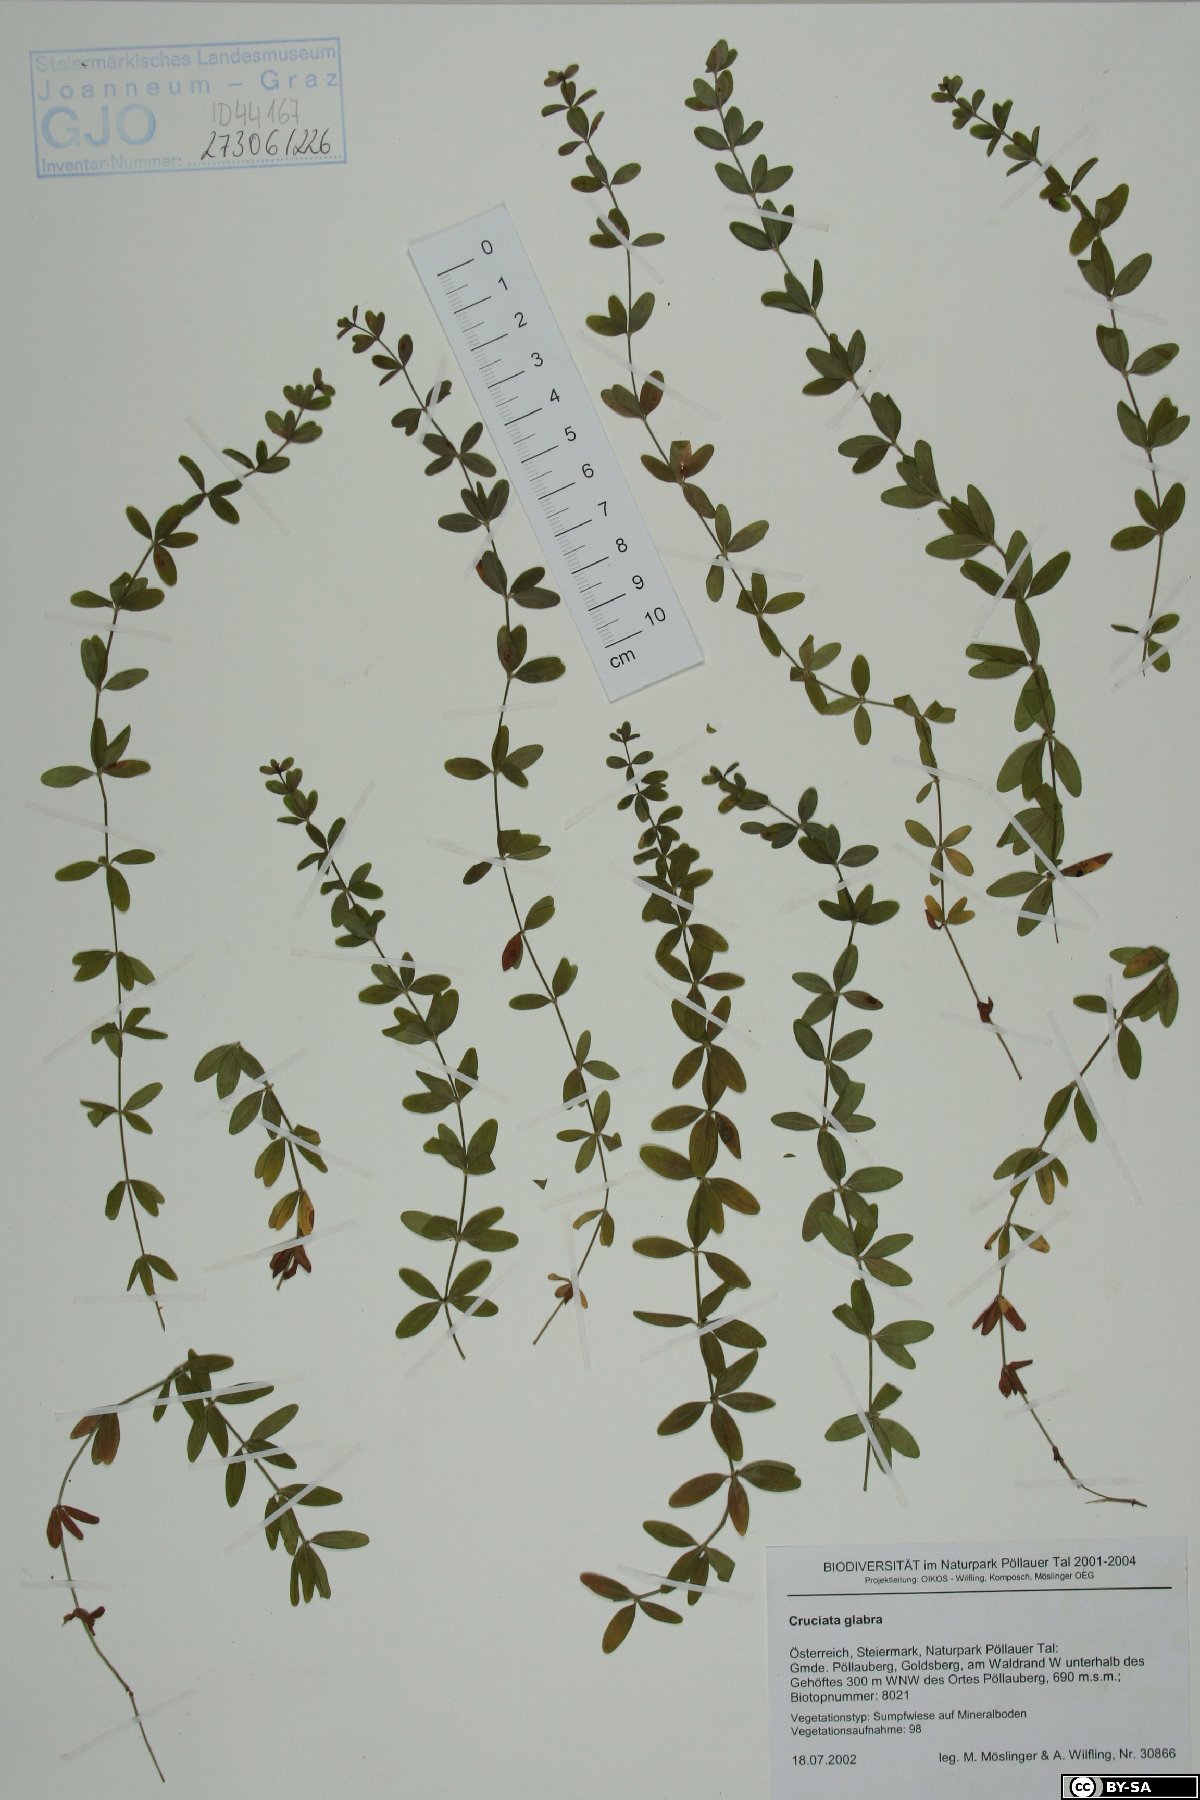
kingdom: Plantae
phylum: Tracheophyta
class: Magnoliopsida
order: Gentianales
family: Rubiaceae
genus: Cruciata
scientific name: Cruciata glabra
